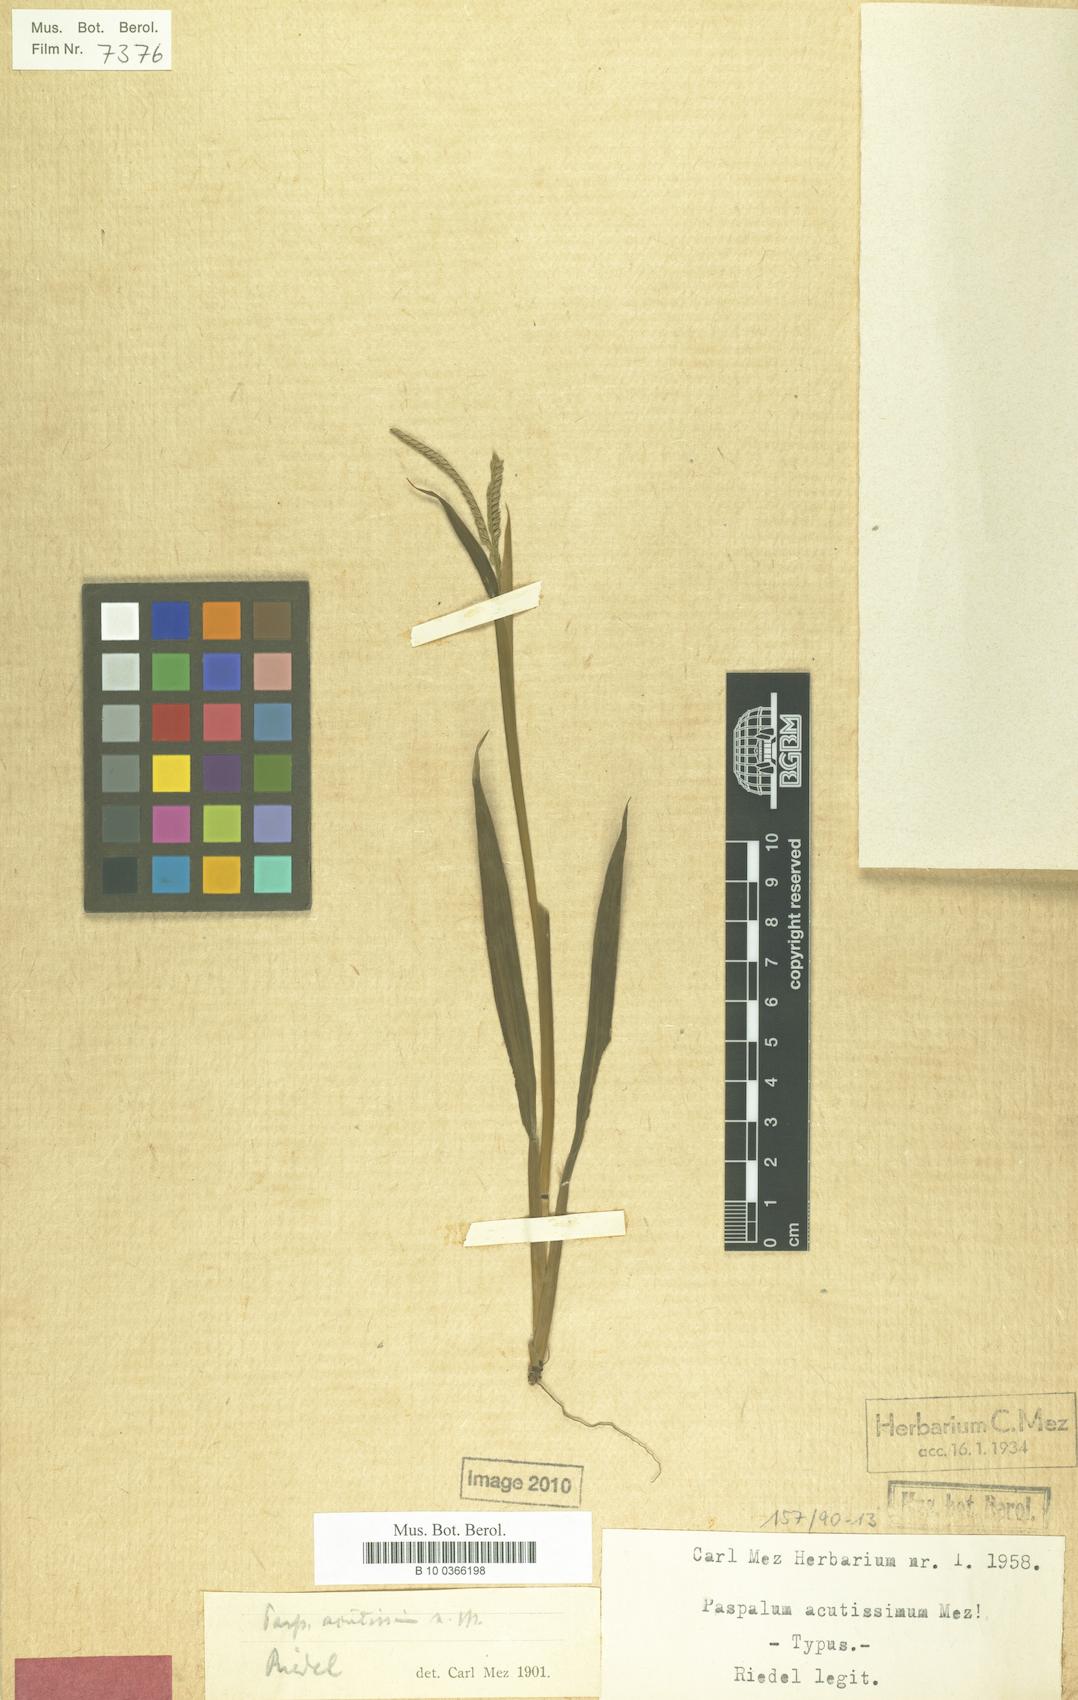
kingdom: Plantae
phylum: Tracheophyta
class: Liliopsida
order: Poales
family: Poaceae
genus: Paspalum
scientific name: Paspalum corcovadense
